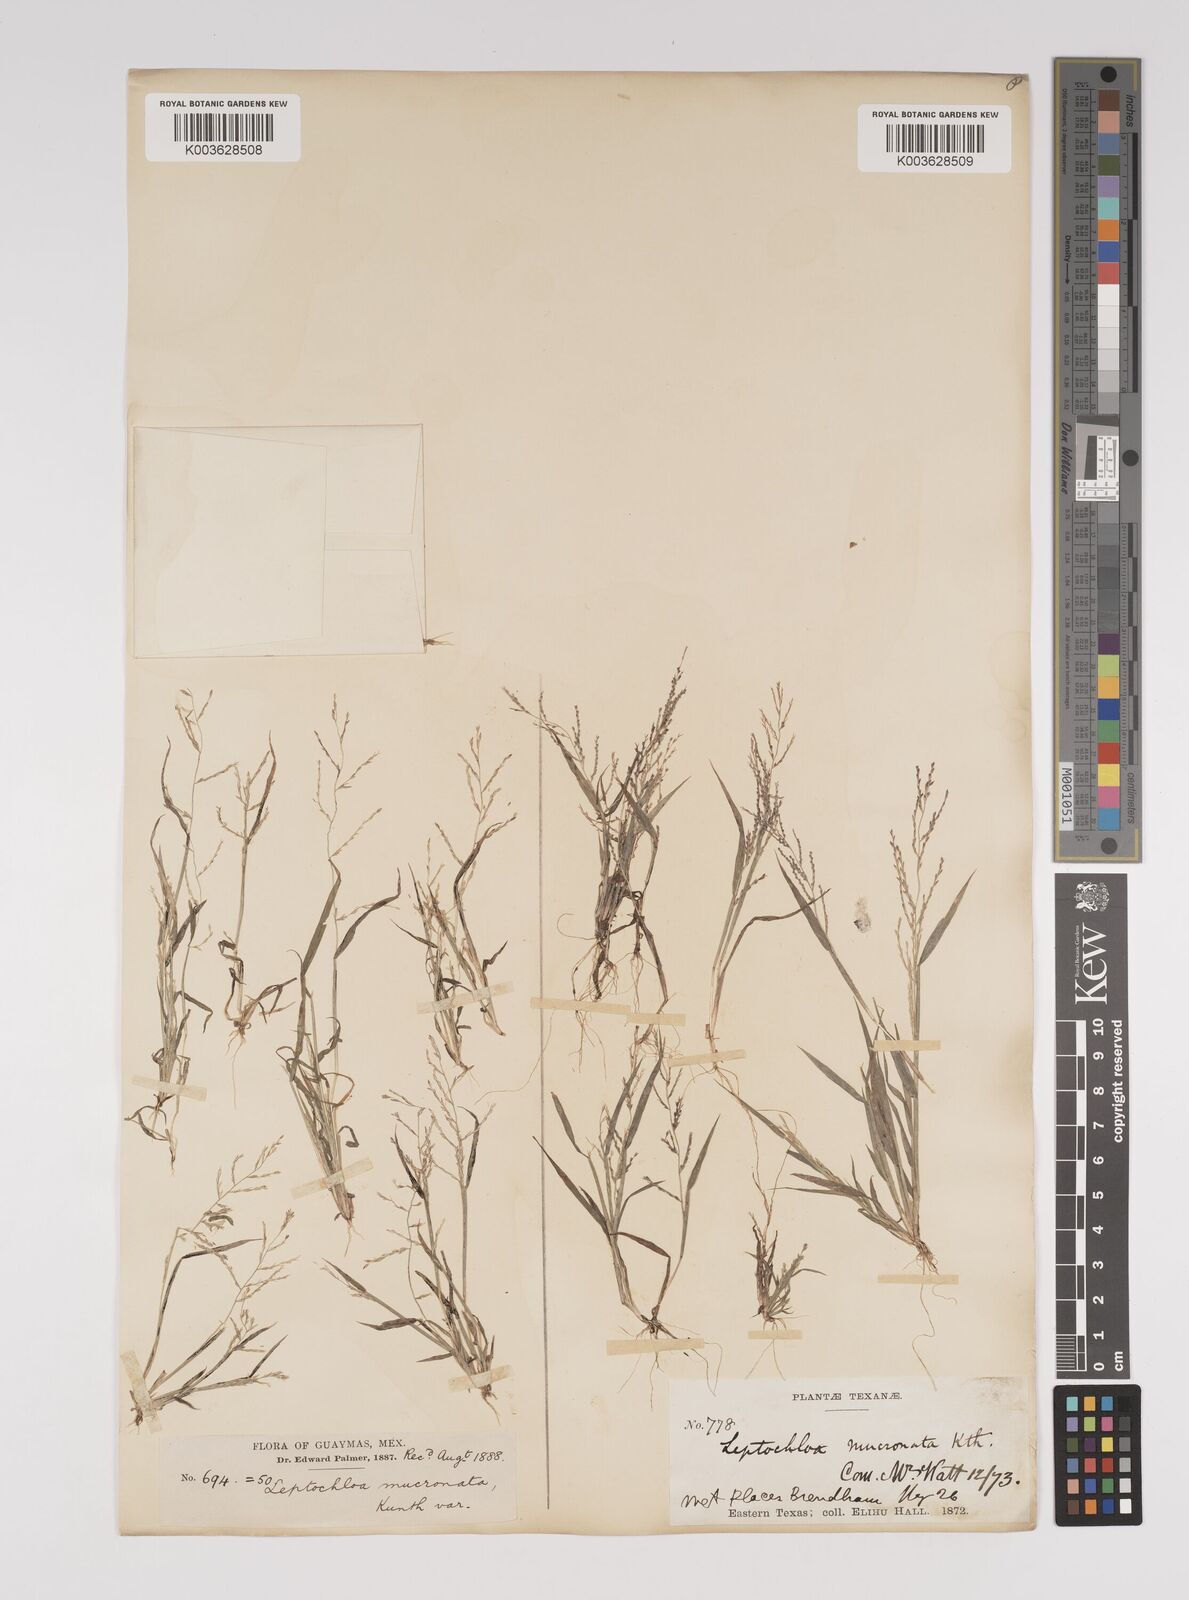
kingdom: Plantae
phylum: Tracheophyta
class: Liliopsida
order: Poales
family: Poaceae
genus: Leptochloa
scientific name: Leptochloa panicea
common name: Mucronate sprangletop
